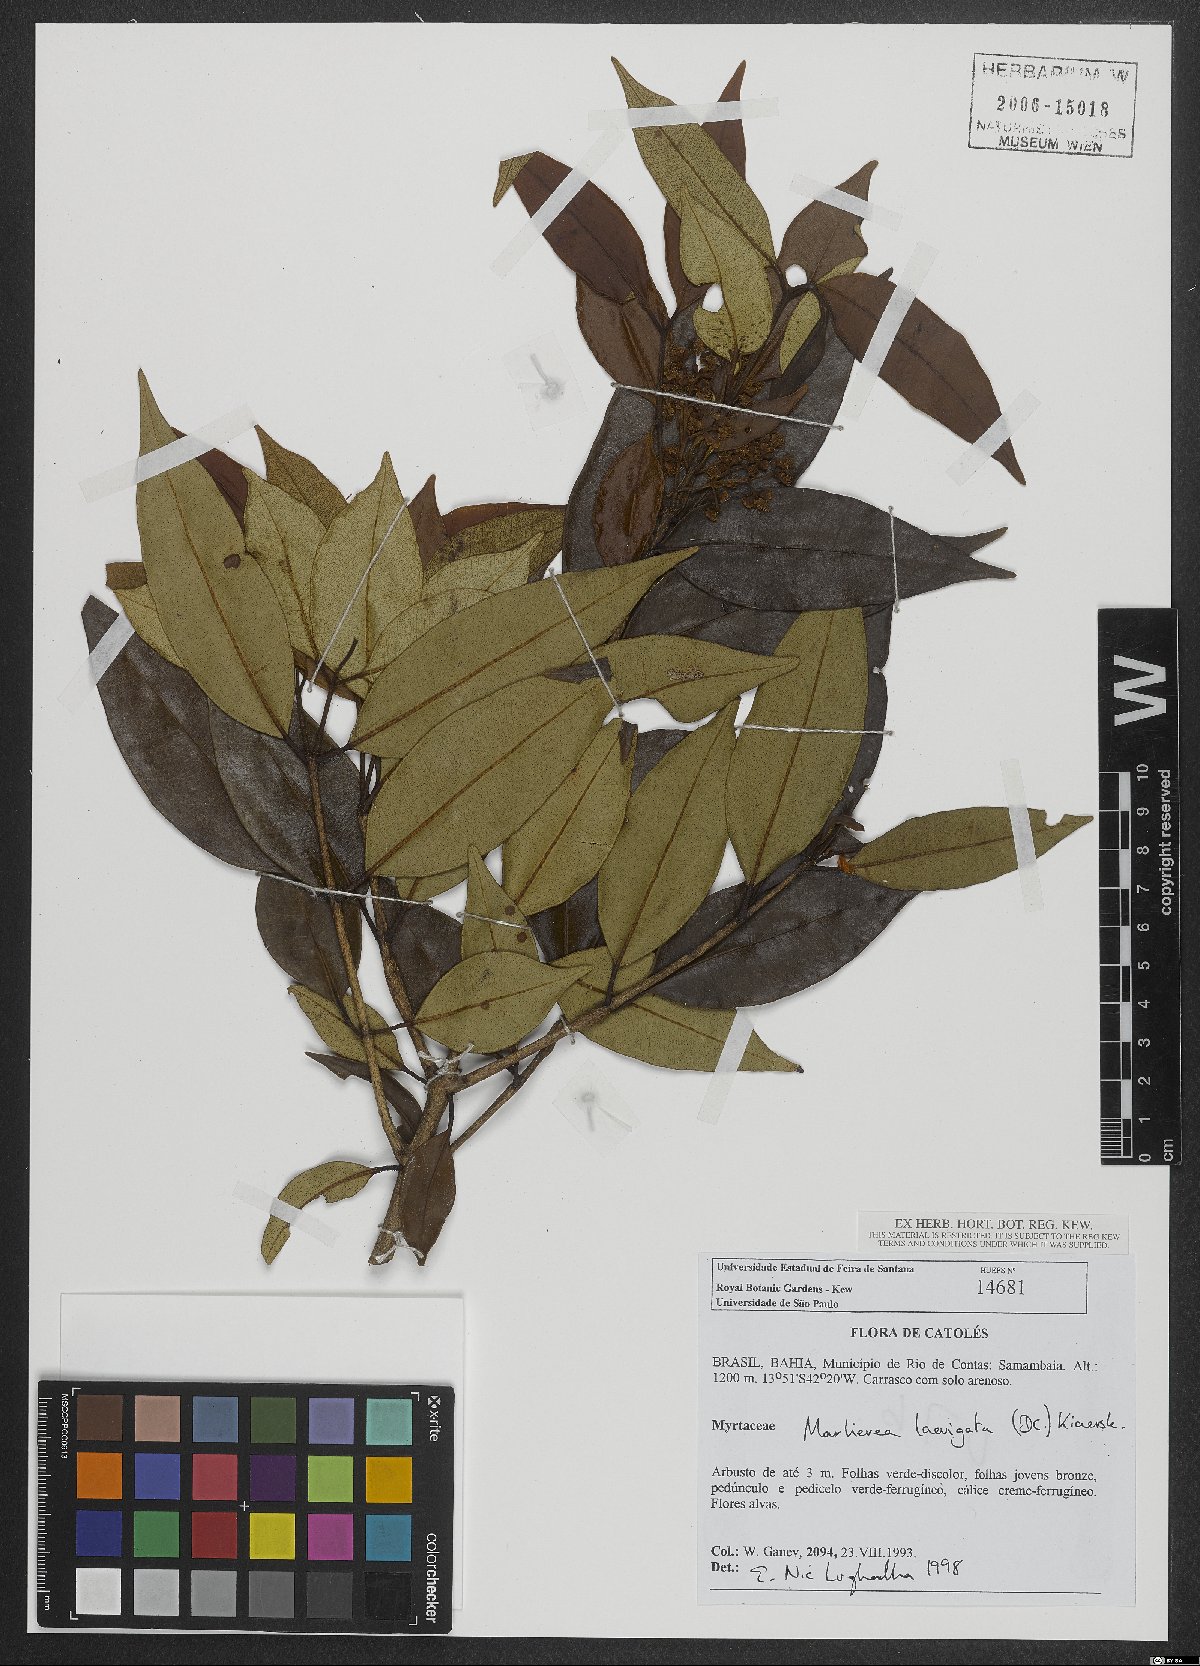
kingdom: Plantae
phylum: Tracheophyta
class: Magnoliopsida
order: Myrtales
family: Myrtaceae
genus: Myrcia
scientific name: Myrcia multipunctata
